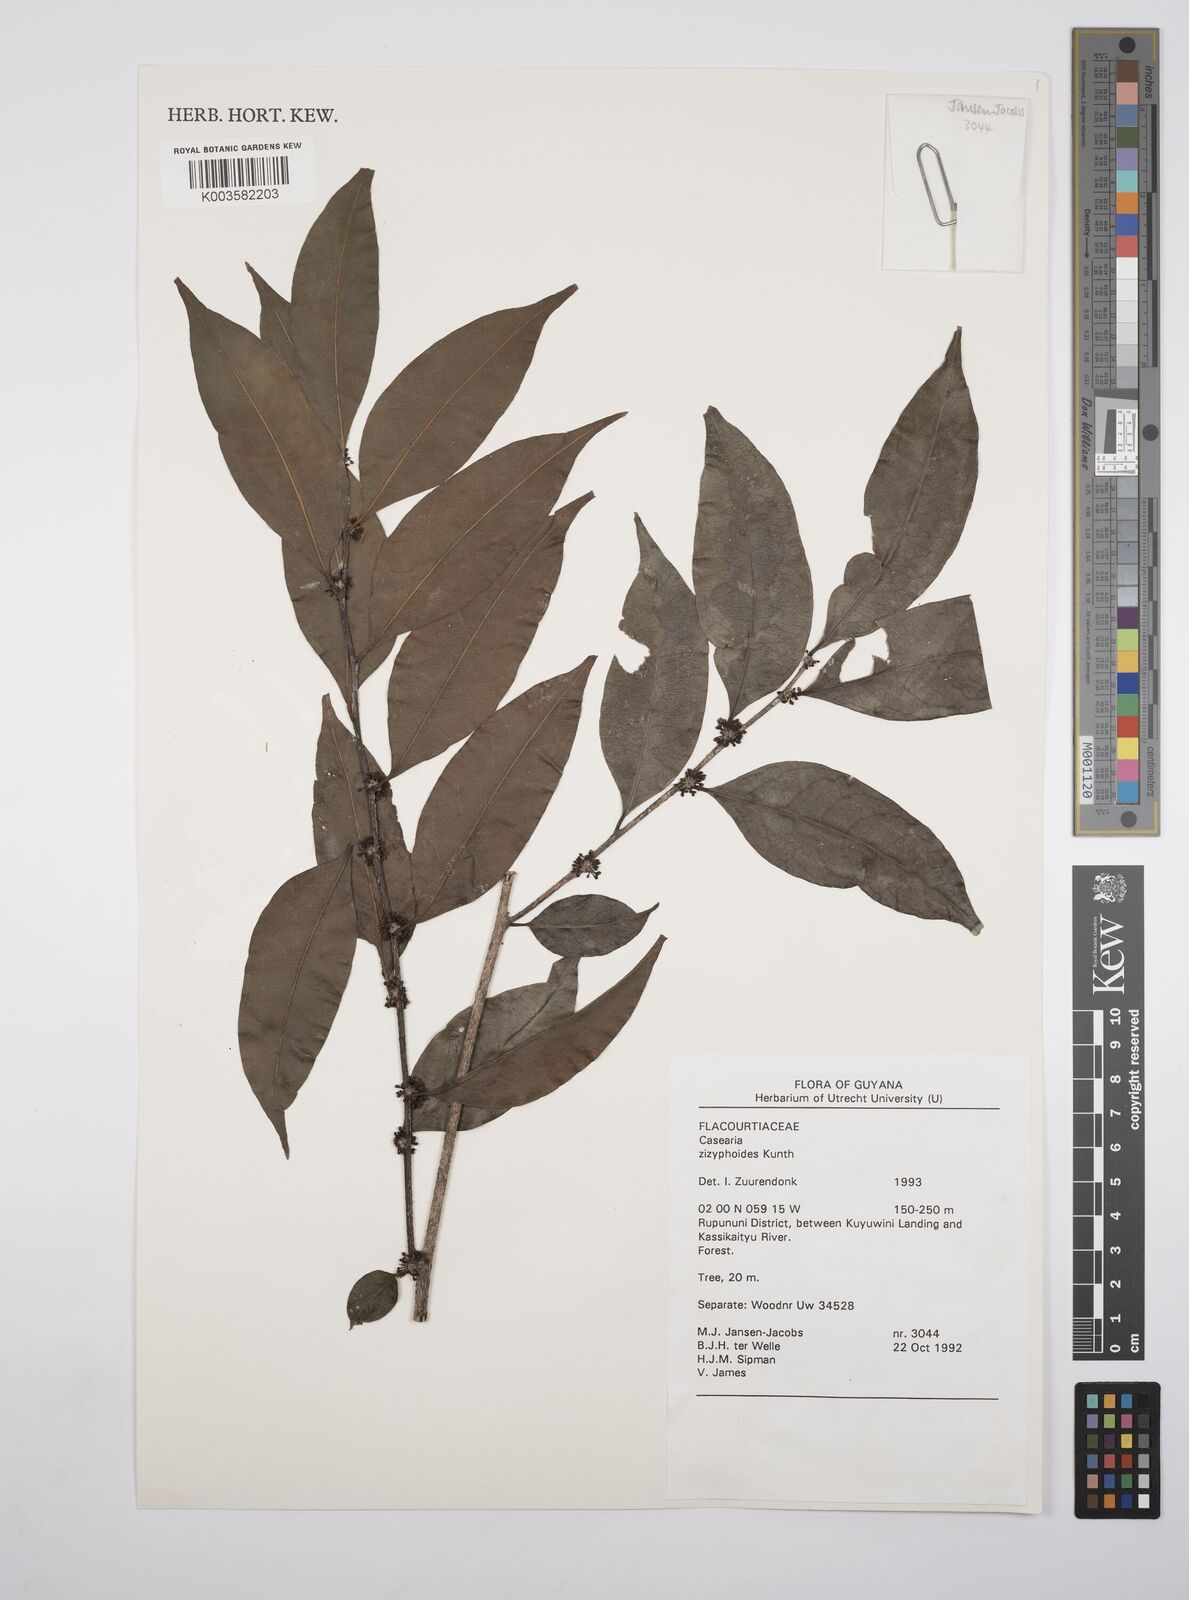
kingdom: Plantae
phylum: Tracheophyta
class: Magnoliopsida
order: Malpighiales
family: Salicaceae
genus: Casearia
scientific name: Casearia zizyphoides
